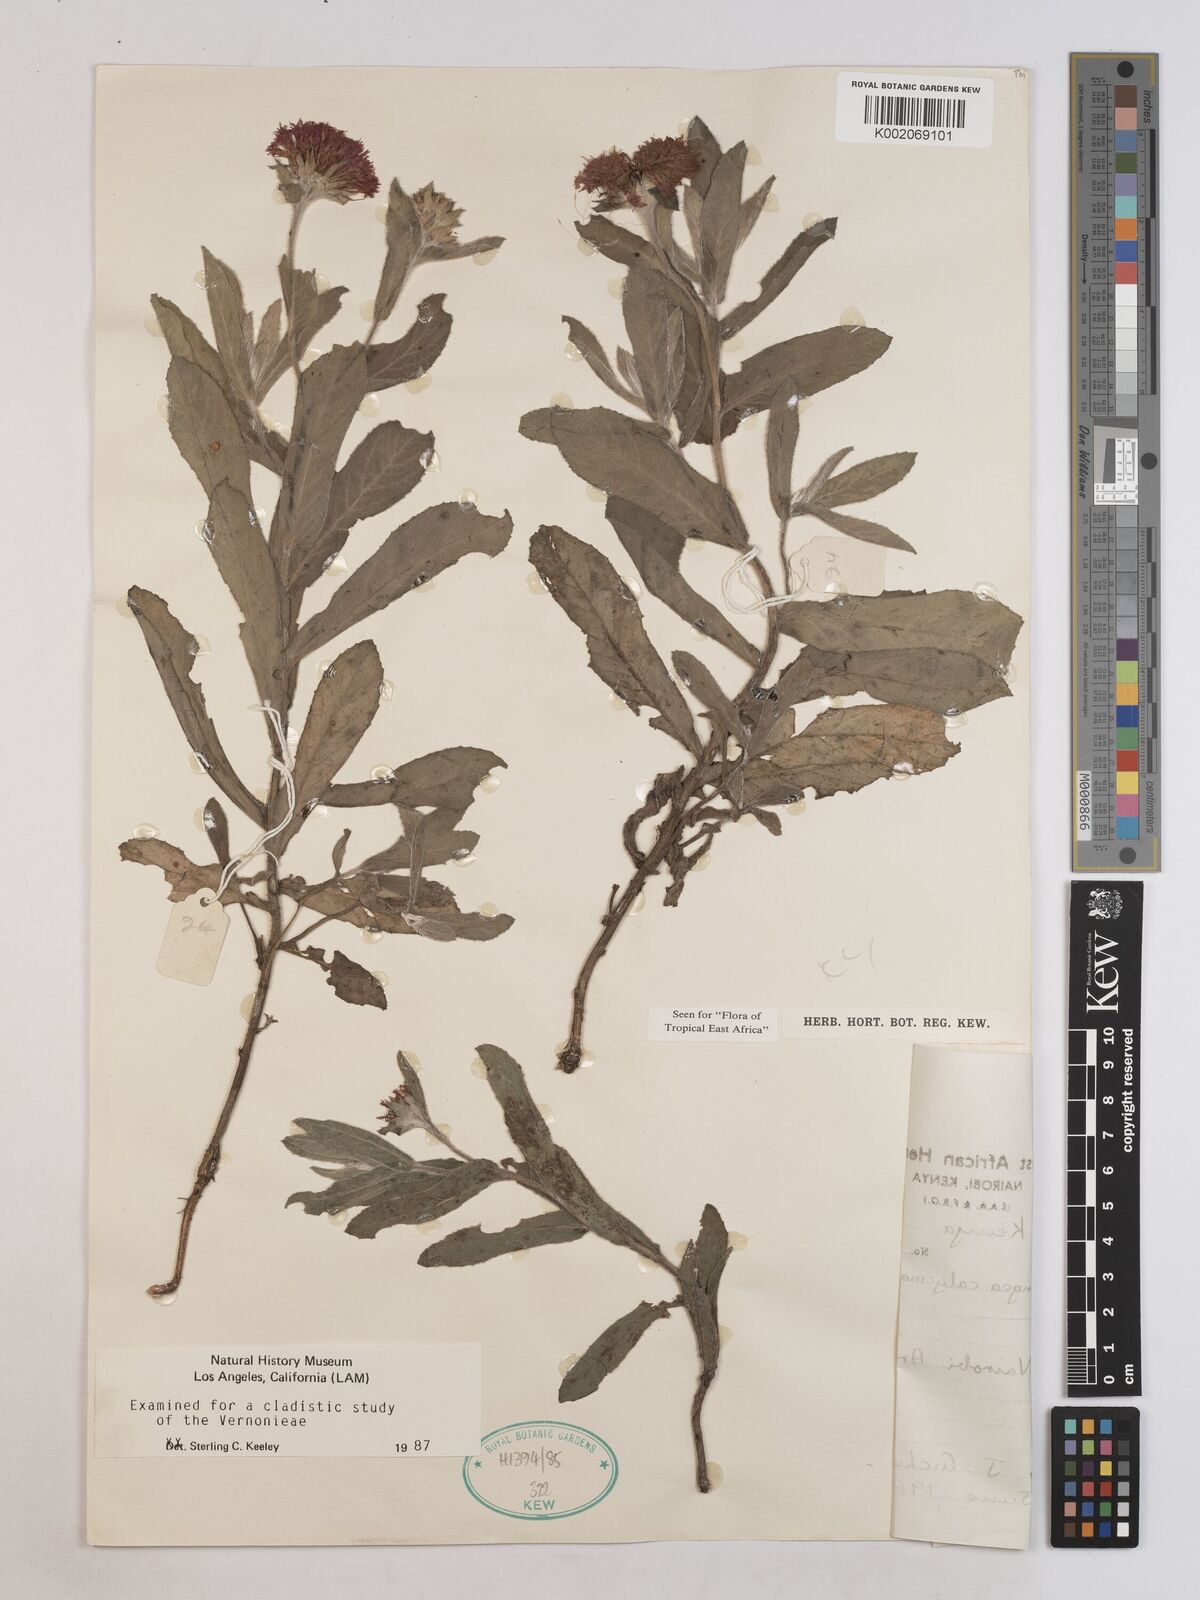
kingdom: Plantae
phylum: Tracheophyta
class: Magnoliopsida
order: Asterales
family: Asteraceae
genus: Erlangea
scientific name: Erlangea calycina
